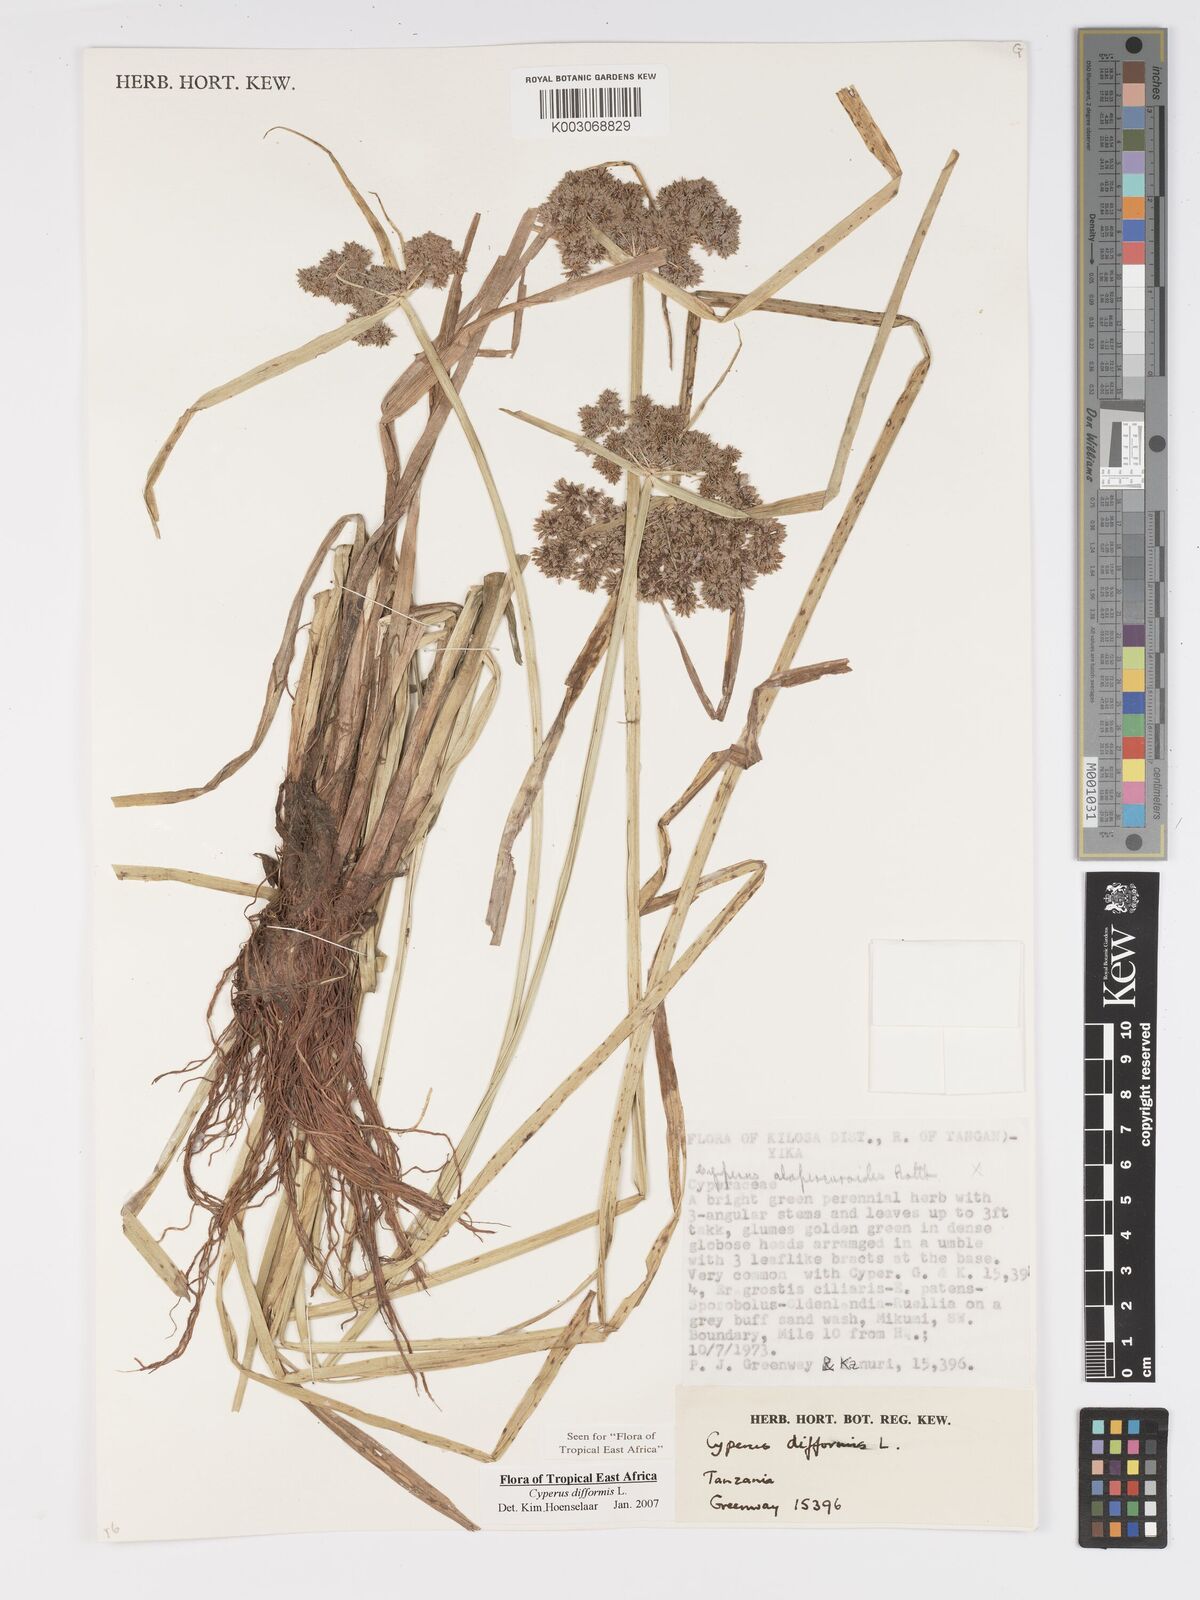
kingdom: Plantae
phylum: Tracheophyta
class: Liliopsida
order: Poales
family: Cyperaceae
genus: Cyperus
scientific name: Cyperus difformis
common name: Variable flatsedge
